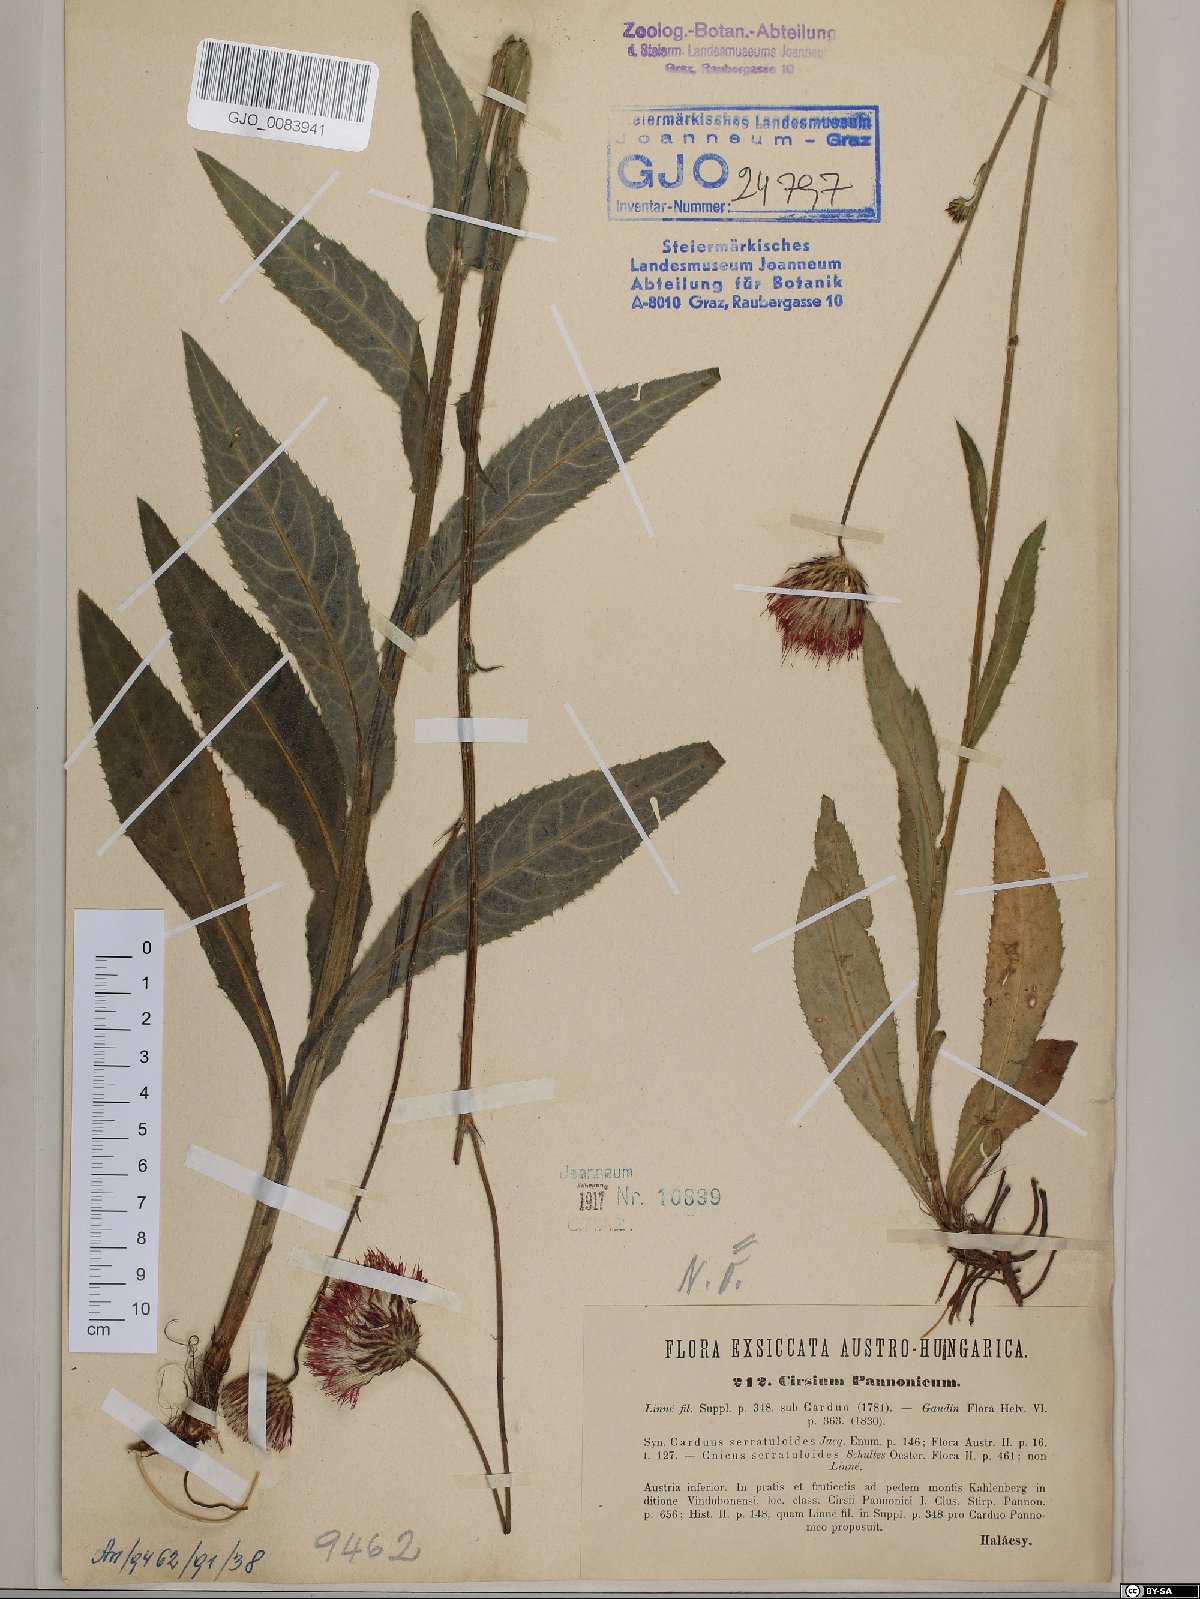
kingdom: Plantae
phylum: Tracheophyta
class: Magnoliopsida
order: Asterales
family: Asteraceae
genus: Cirsium
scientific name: Cirsium pannonicum
